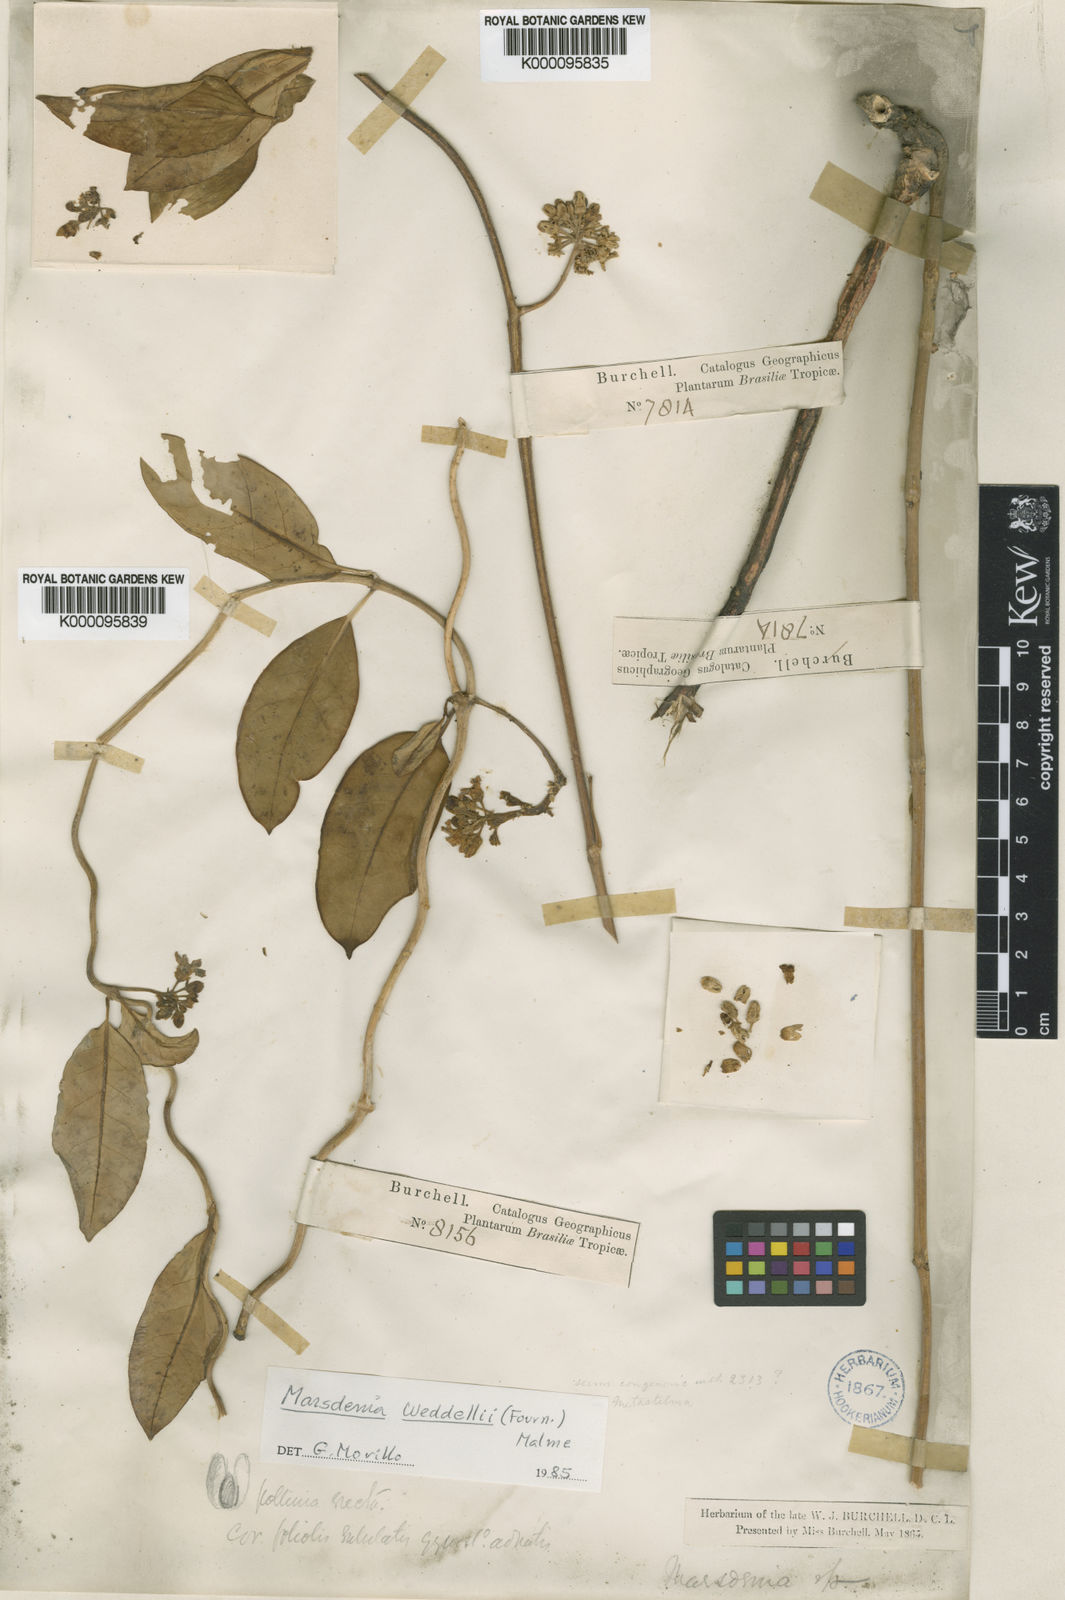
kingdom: Plantae
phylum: Tracheophyta
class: Magnoliopsida
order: Gentianales
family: Apocynaceae
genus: Ruehssia
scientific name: Ruehssia weddellii
